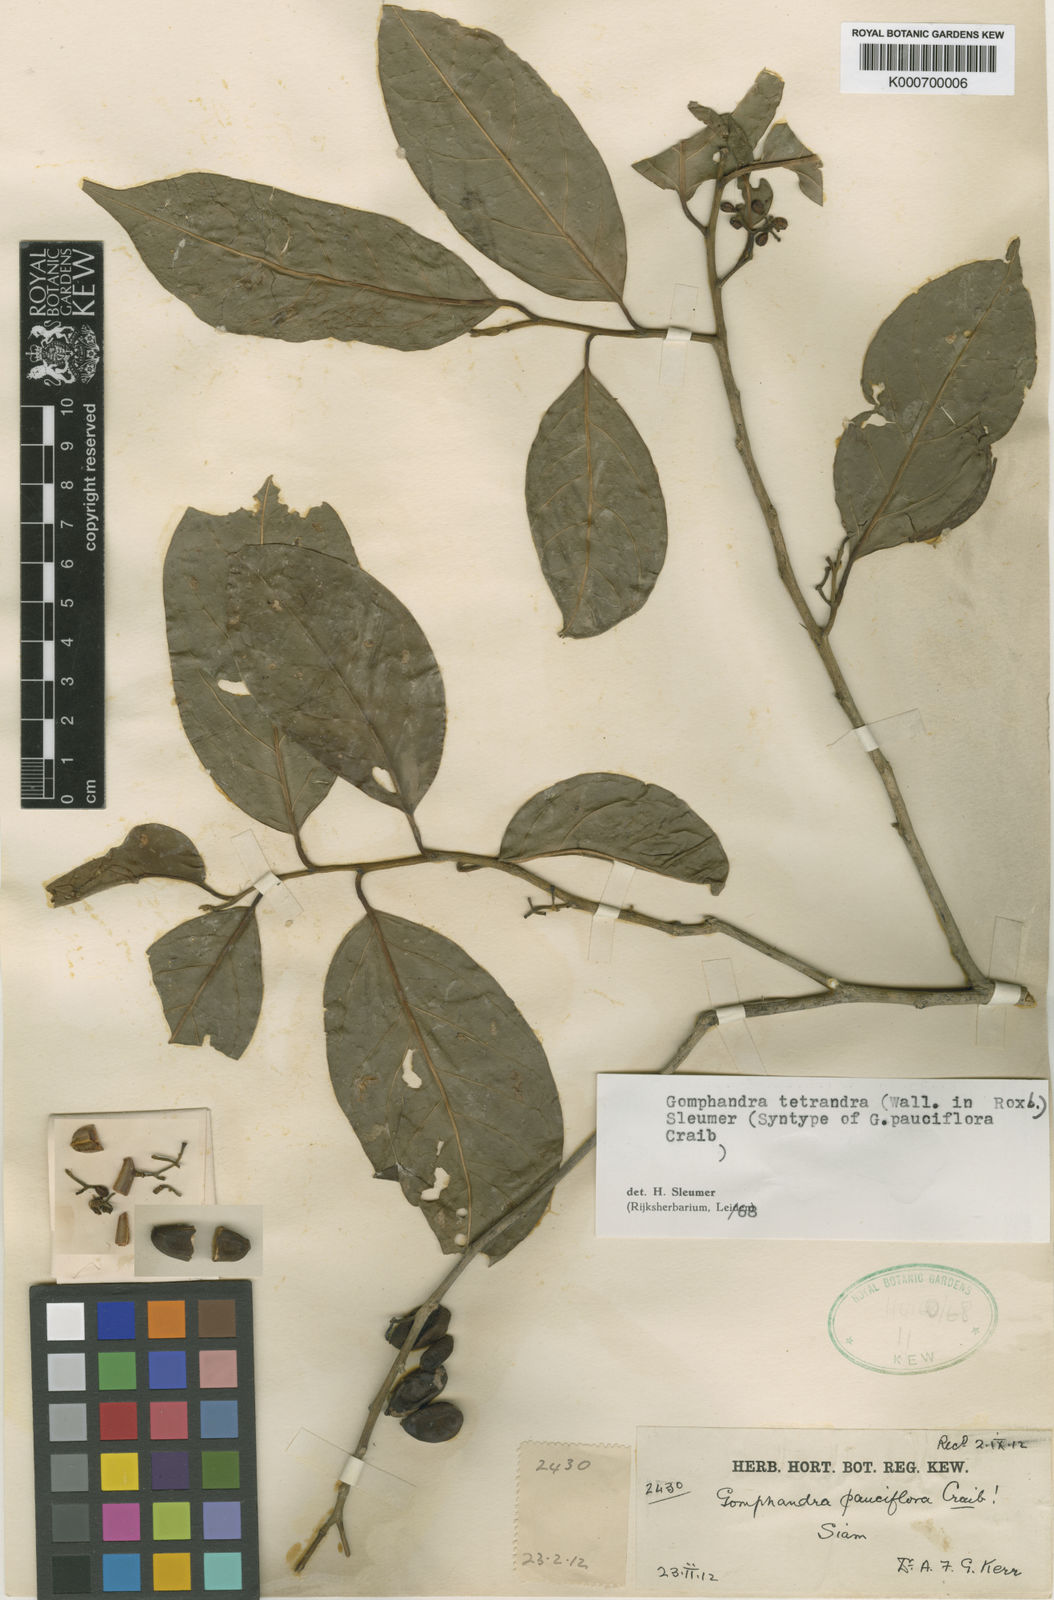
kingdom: Plantae
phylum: Tracheophyta
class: Magnoliopsida
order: Cardiopteridales
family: Stemonuraceae
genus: Gomphandra
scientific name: Gomphandra tetrandra
